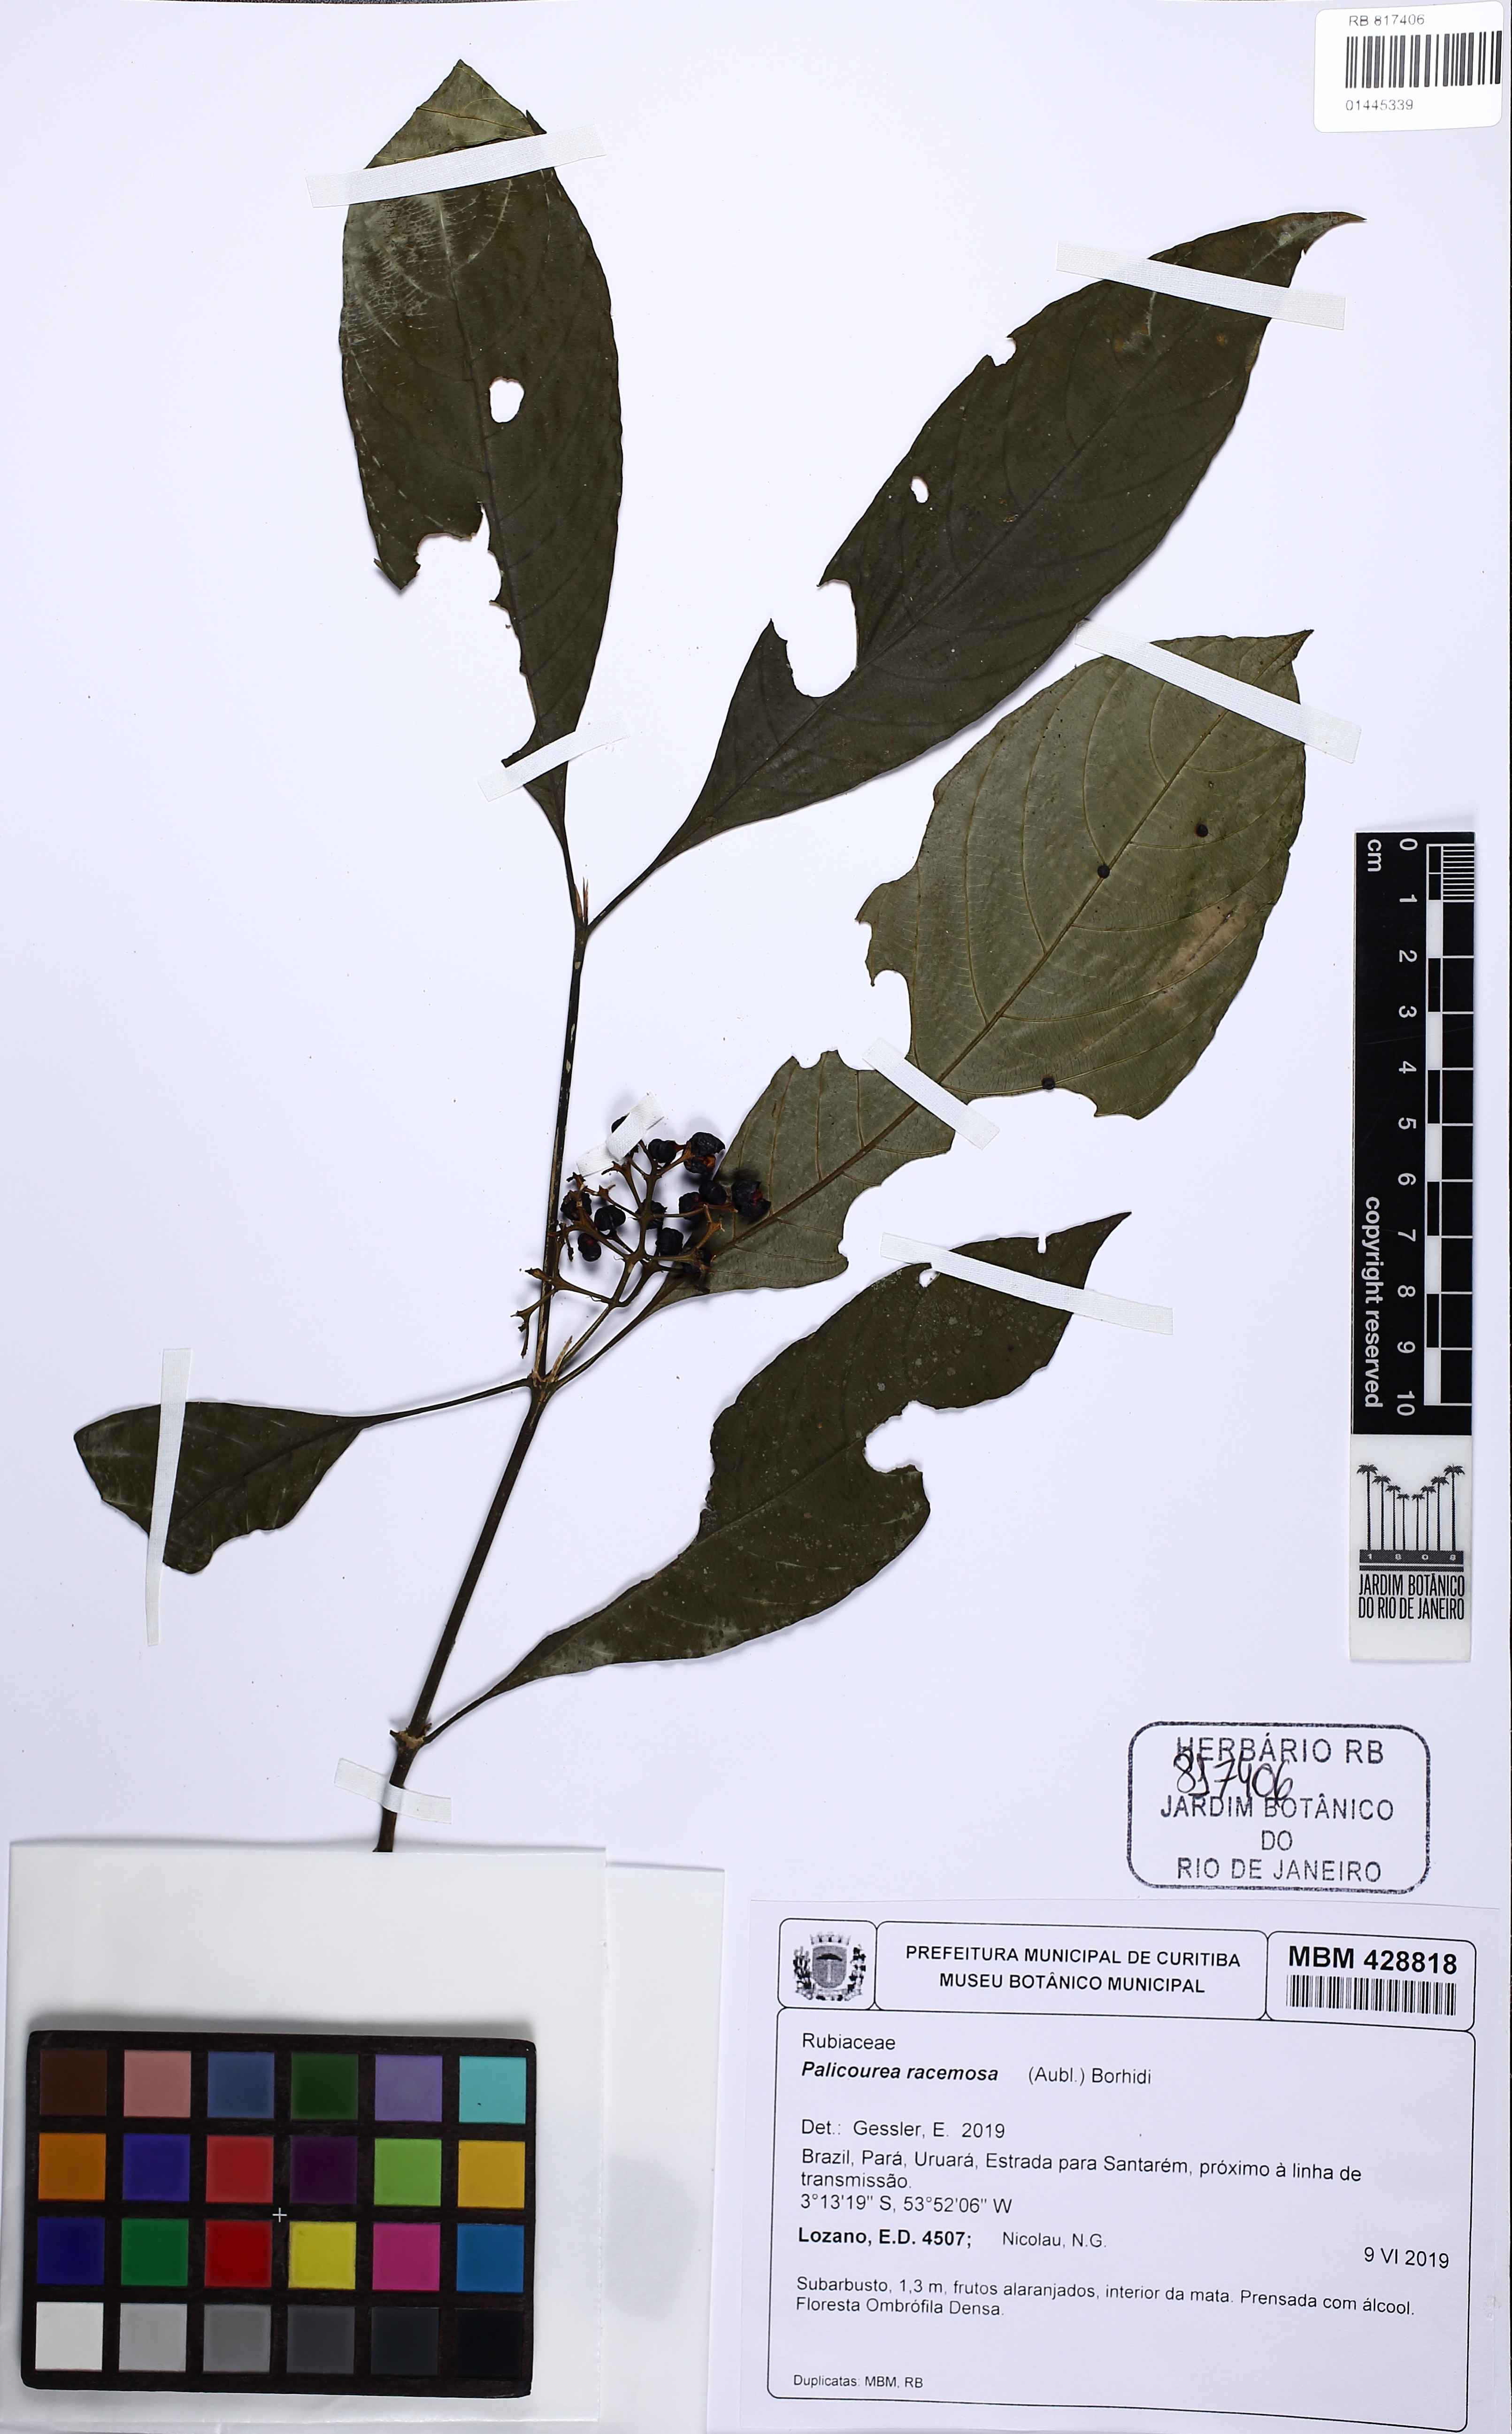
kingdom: Plantae
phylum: Tracheophyta
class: Magnoliopsida
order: Gentianales
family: Rubiaceae
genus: Palicourea
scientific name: Palicourea racemosa
